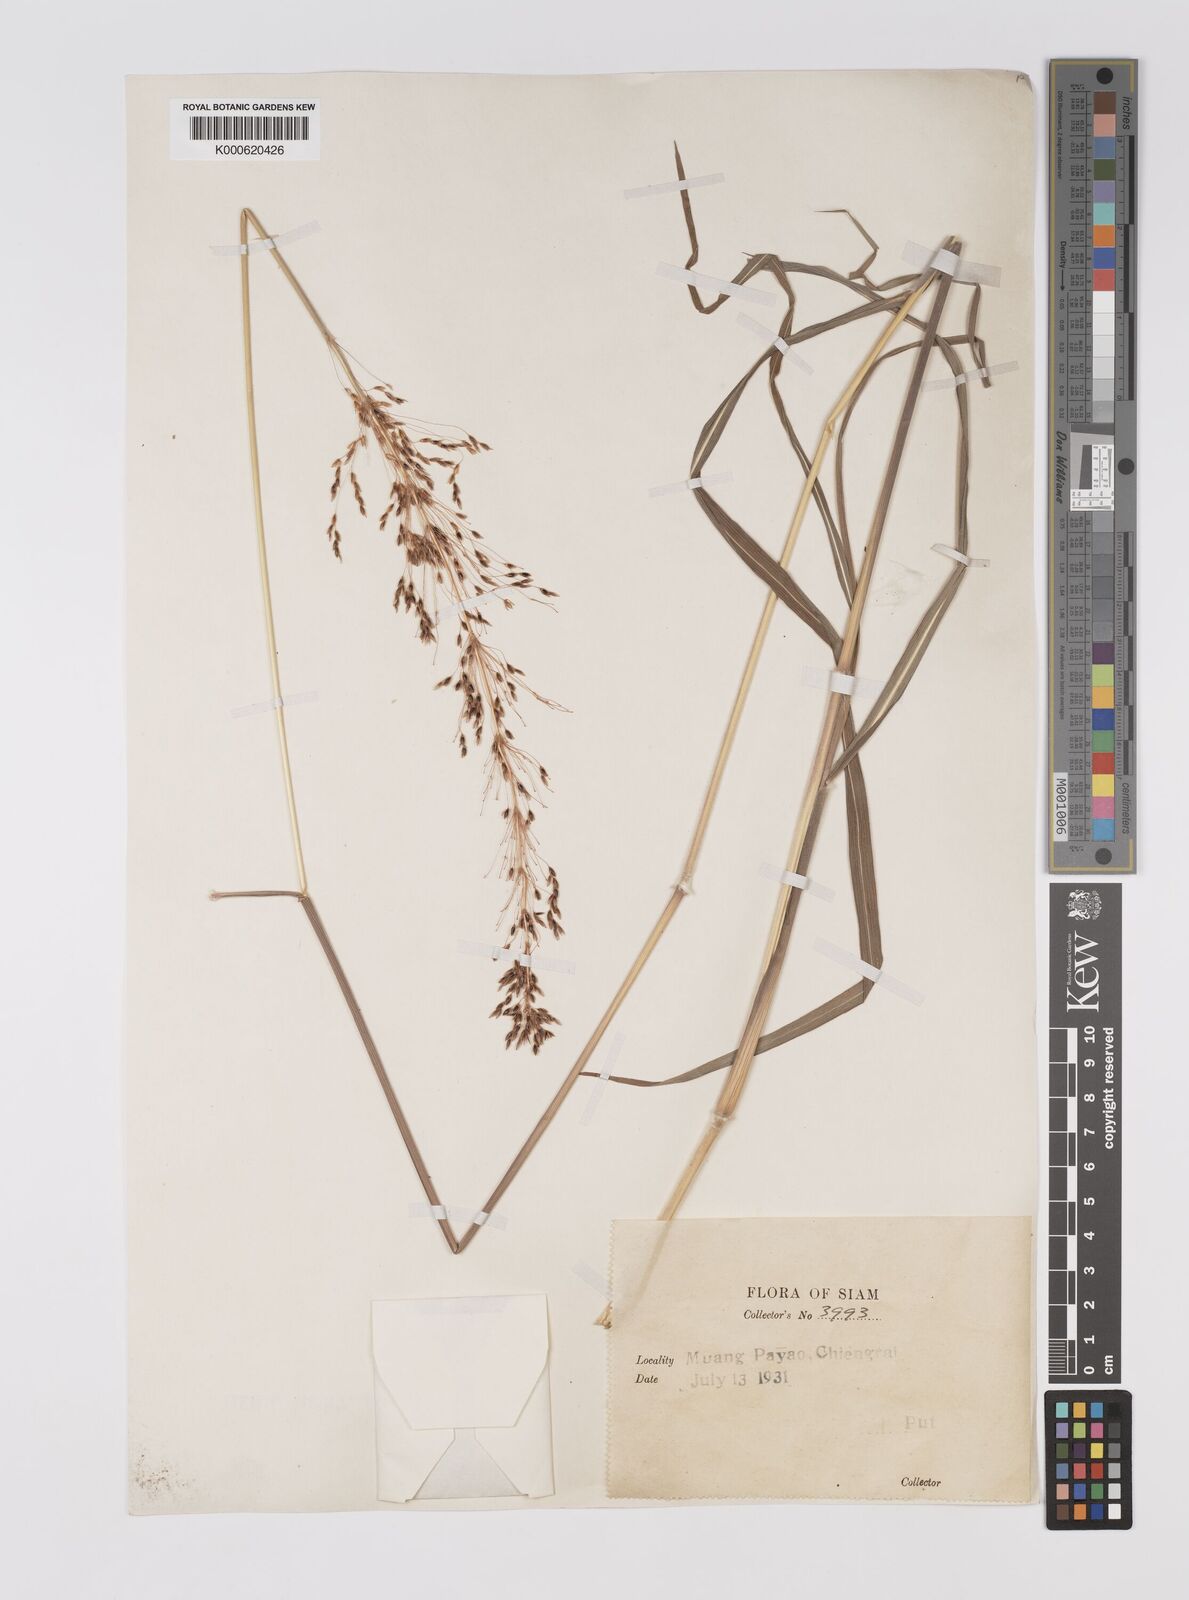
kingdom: Plantae
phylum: Tracheophyta
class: Liliopsida
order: Poales
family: Poaceae
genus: Sorghum
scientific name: Sorghum nitidum
